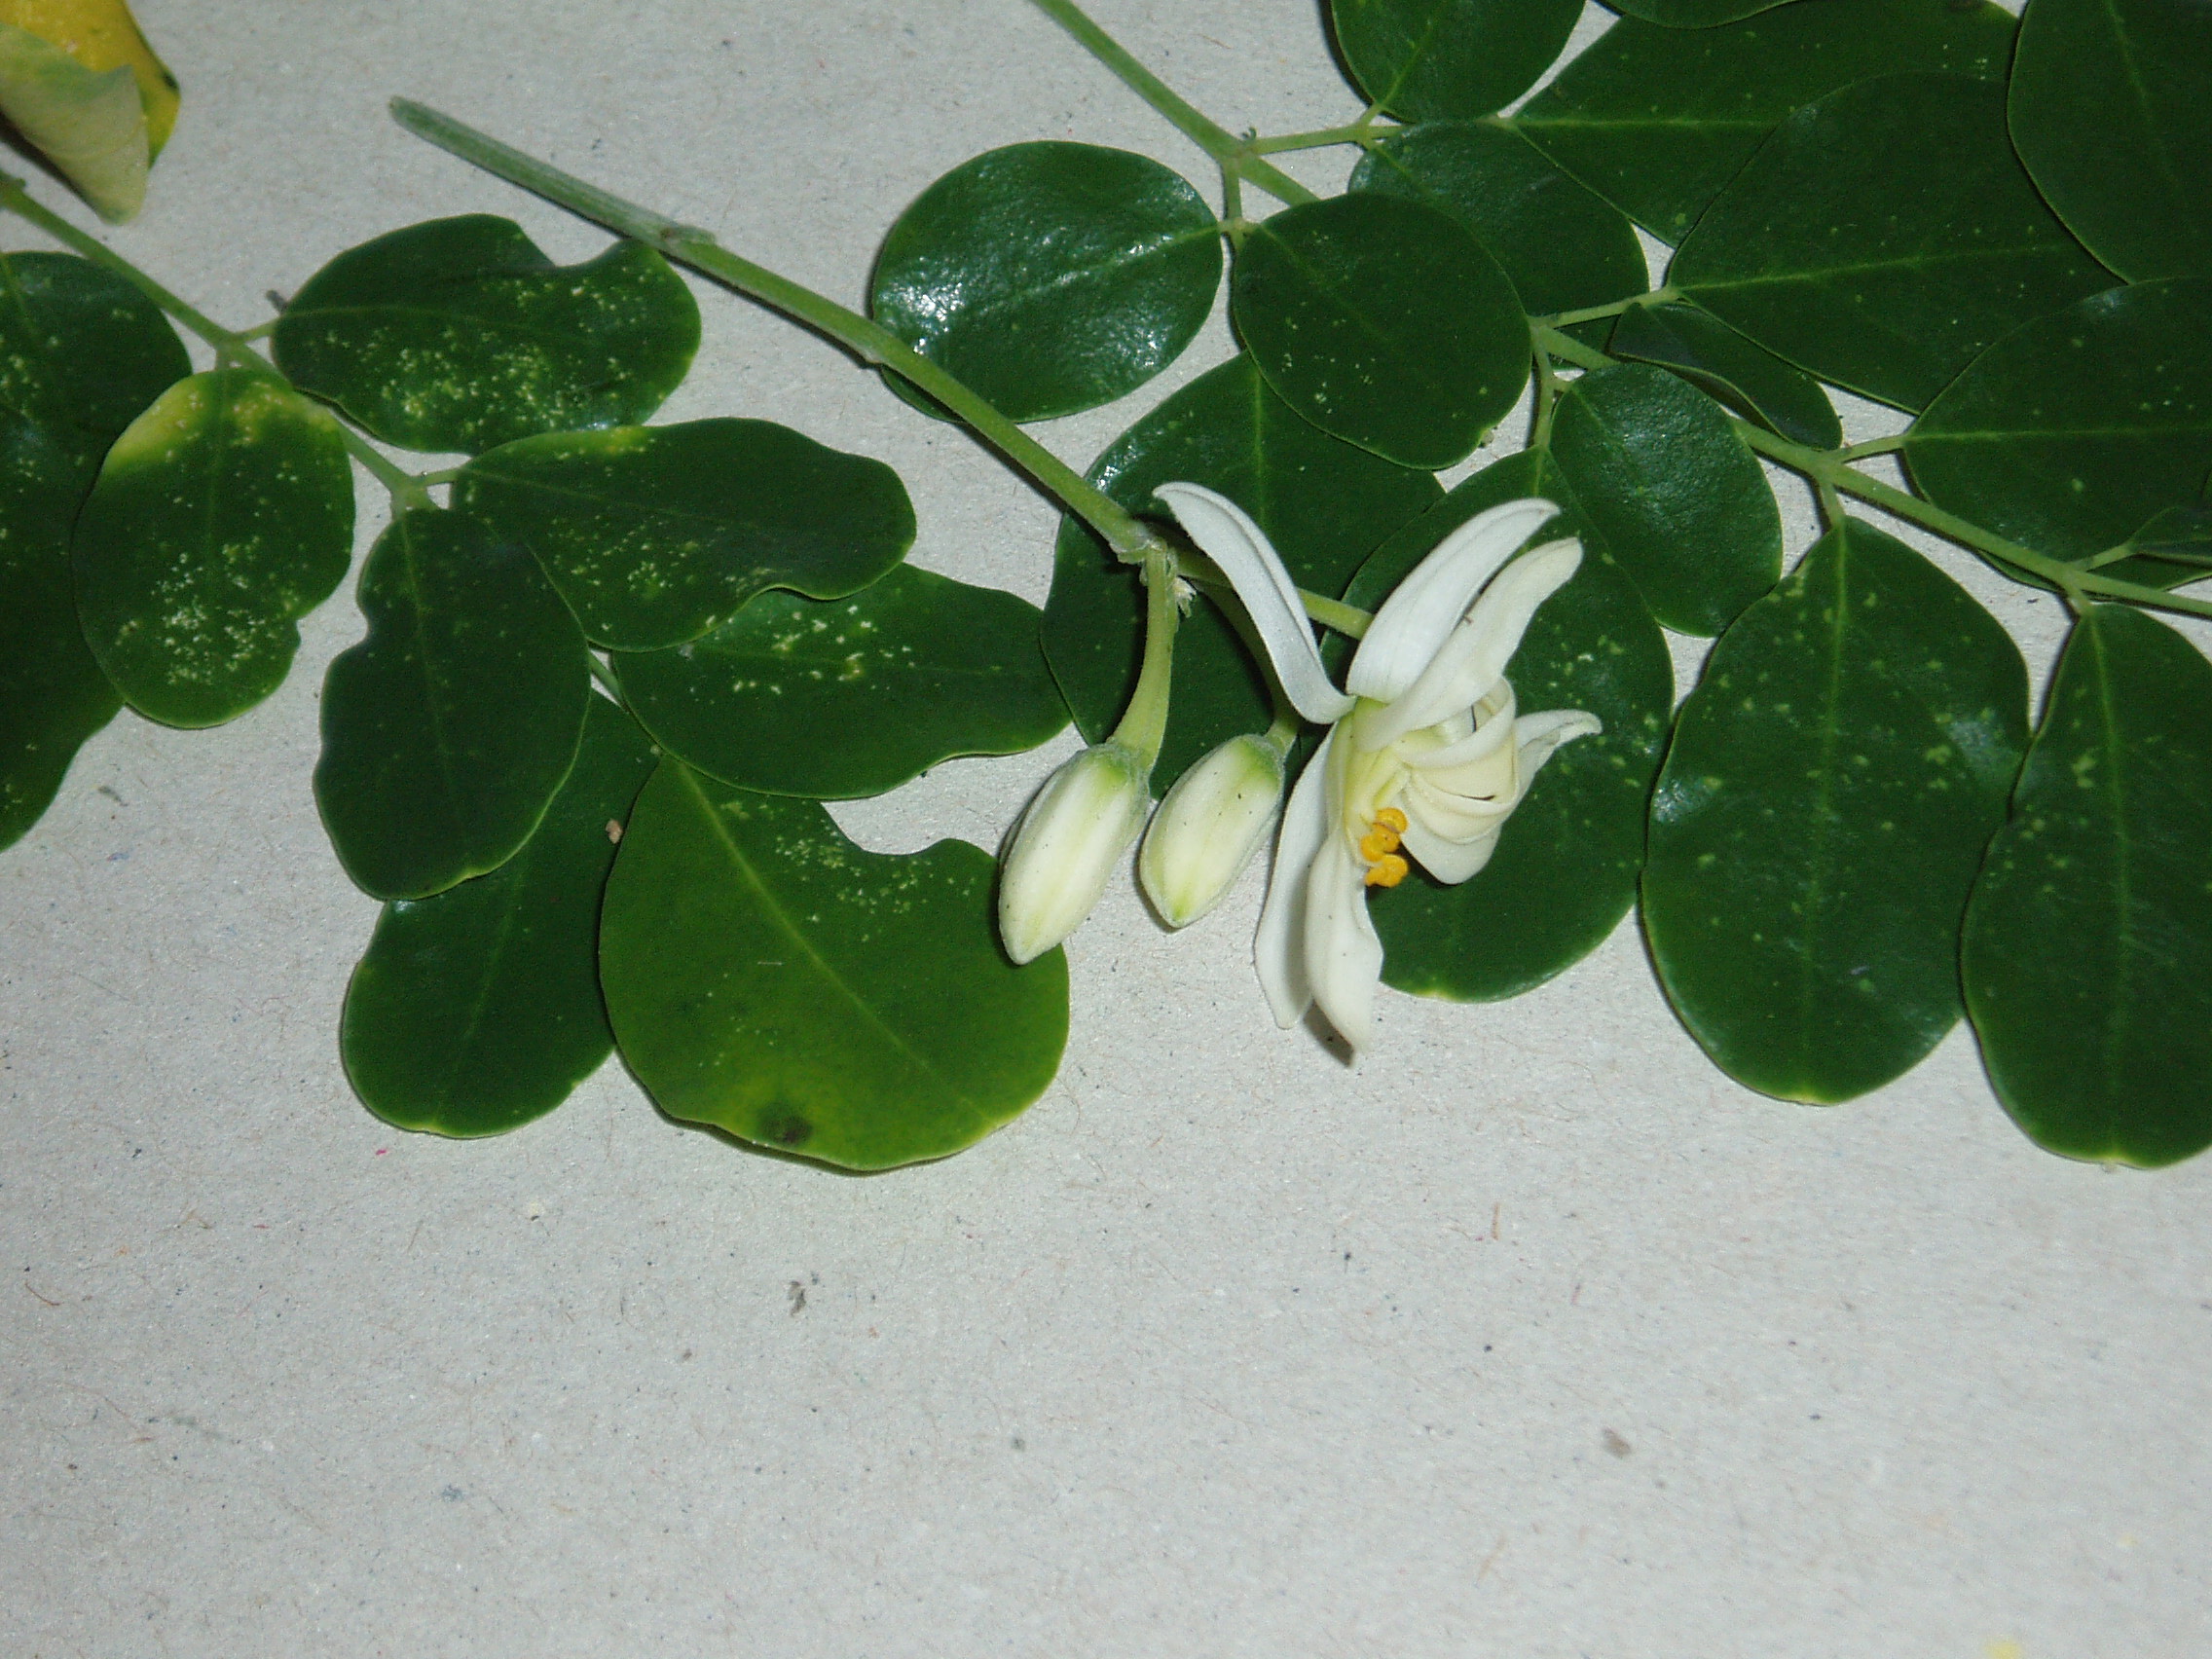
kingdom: Plantae
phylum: Tracheophyta
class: Magnoliopsida
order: Brassicales
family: Moringaceae
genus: Moringa
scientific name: Moringa oleifera
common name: Horseradish-tree
